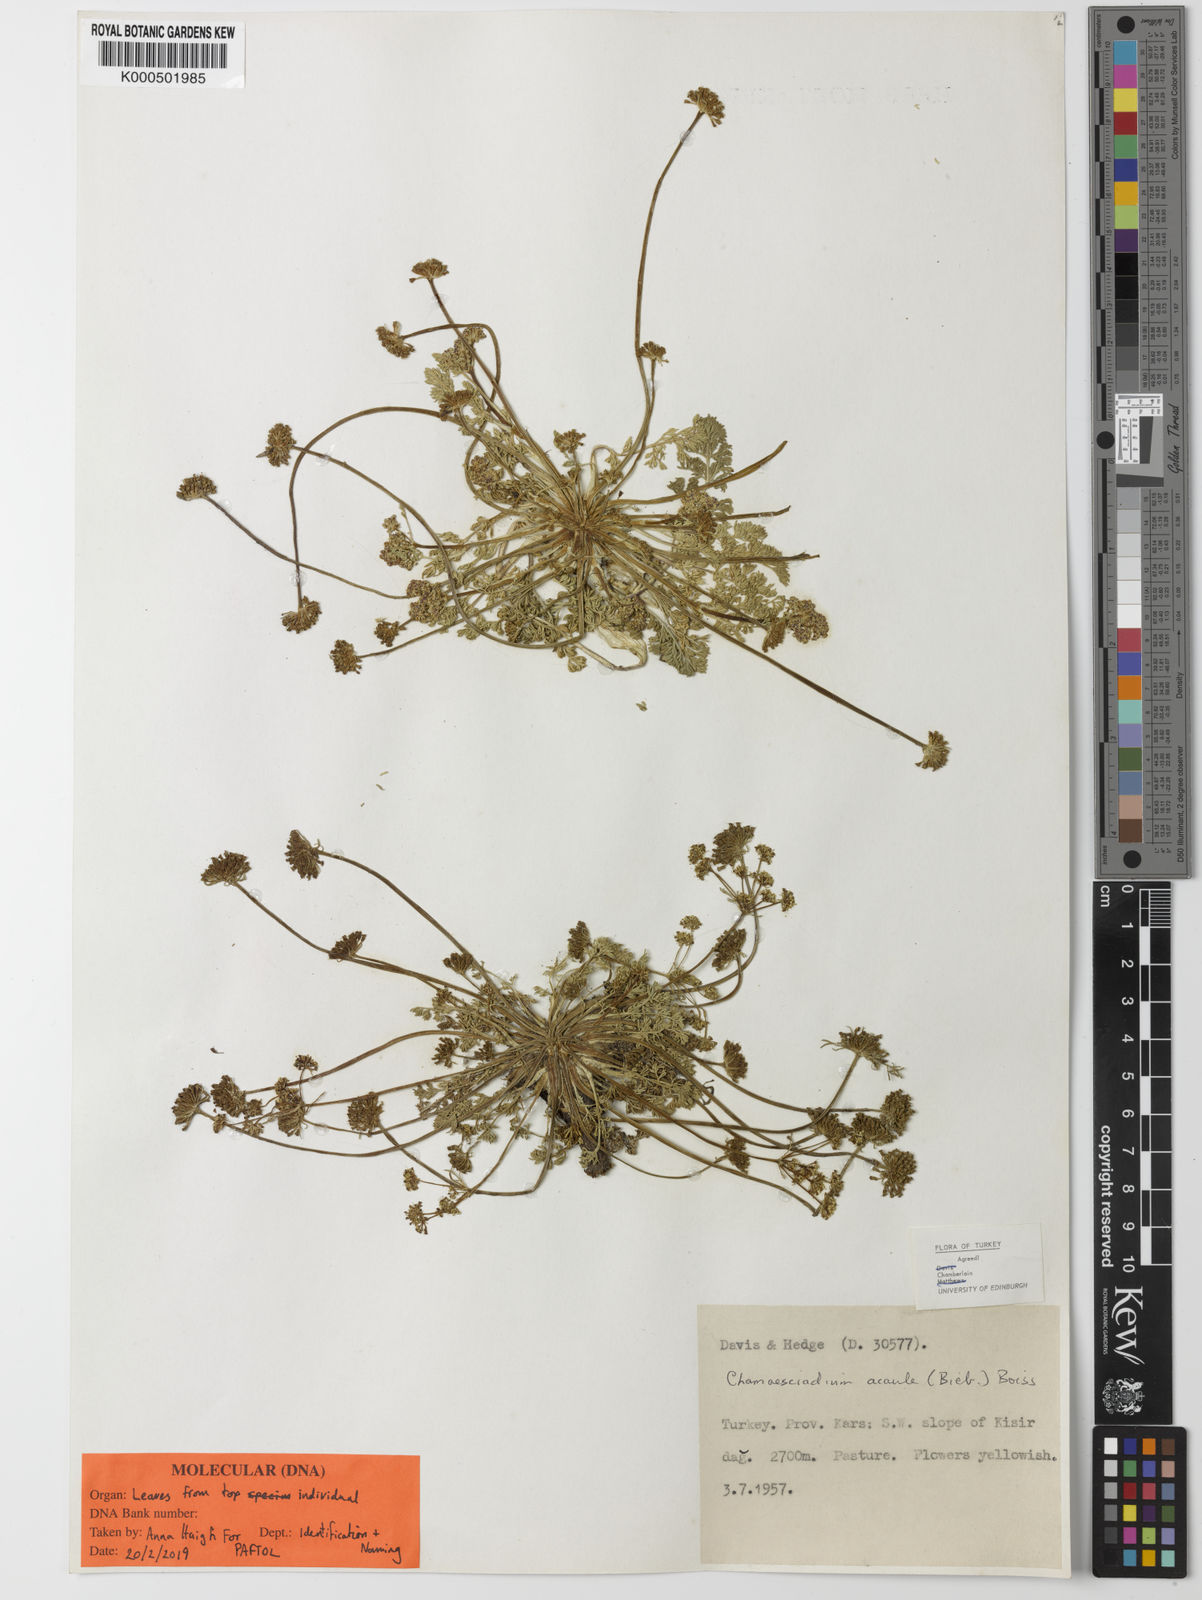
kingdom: Plantae
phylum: Tracheophyta
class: Magnoliopsida
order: Apiales
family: Apiaceae
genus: Chamaesciadium
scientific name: Chamaesciadium acaule
